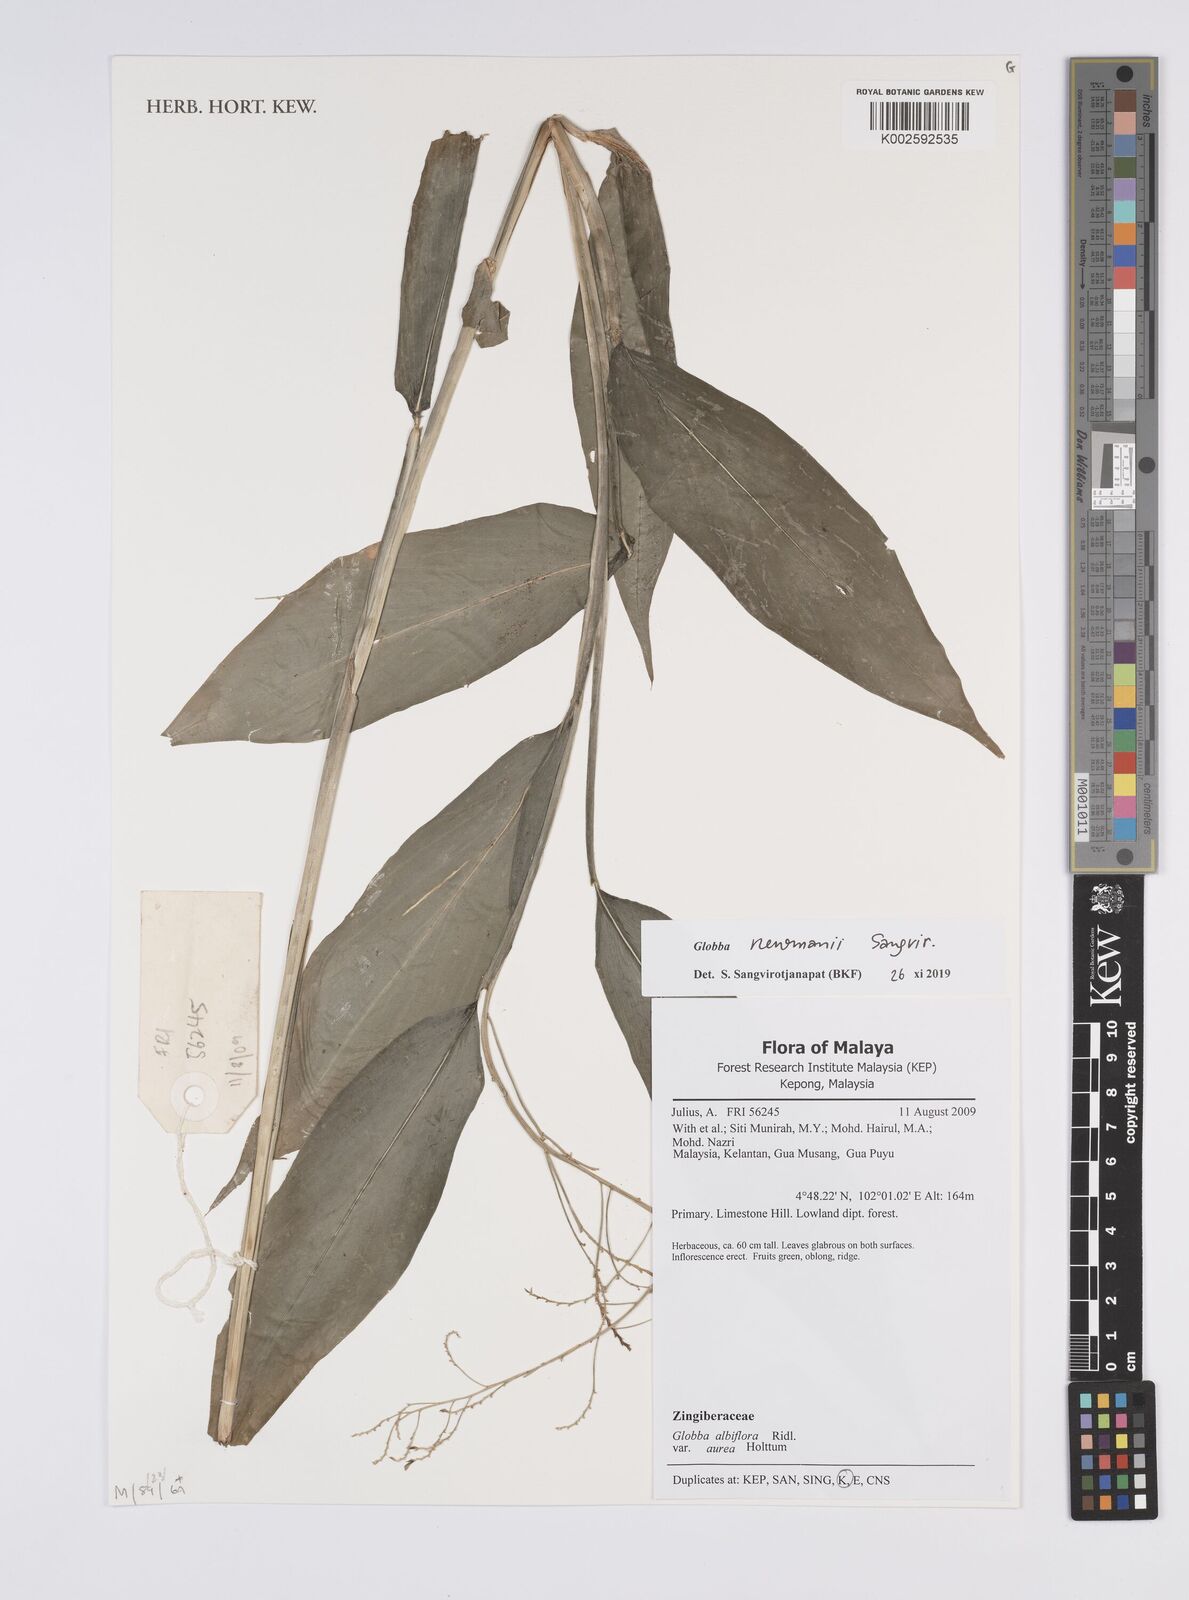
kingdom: Plantae
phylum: Tracheophyta
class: Liliopsida
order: Zingiberales
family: Zingiberaceae
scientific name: Zingiberaceae
